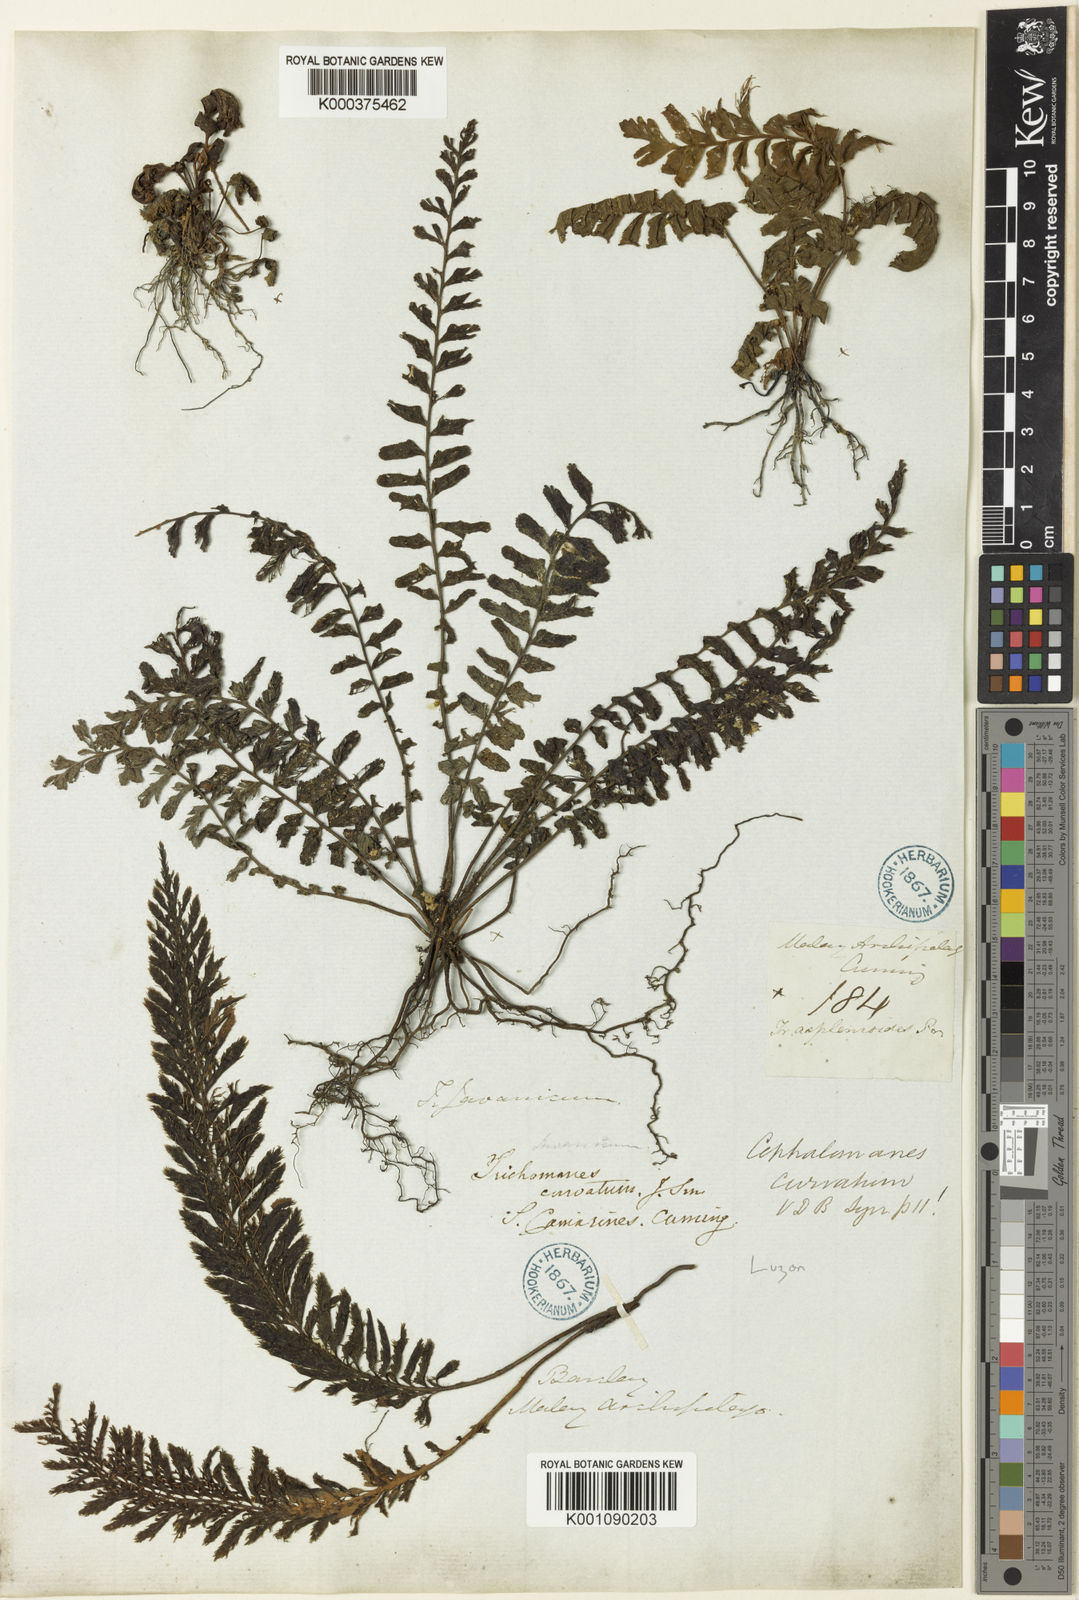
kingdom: Plantae
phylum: Tracheophyta
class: Polypodiopsida
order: Hymenophyllales
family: Hymenophyllaceae
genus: Cephalomanes
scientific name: Cephalomanes atrovirens
